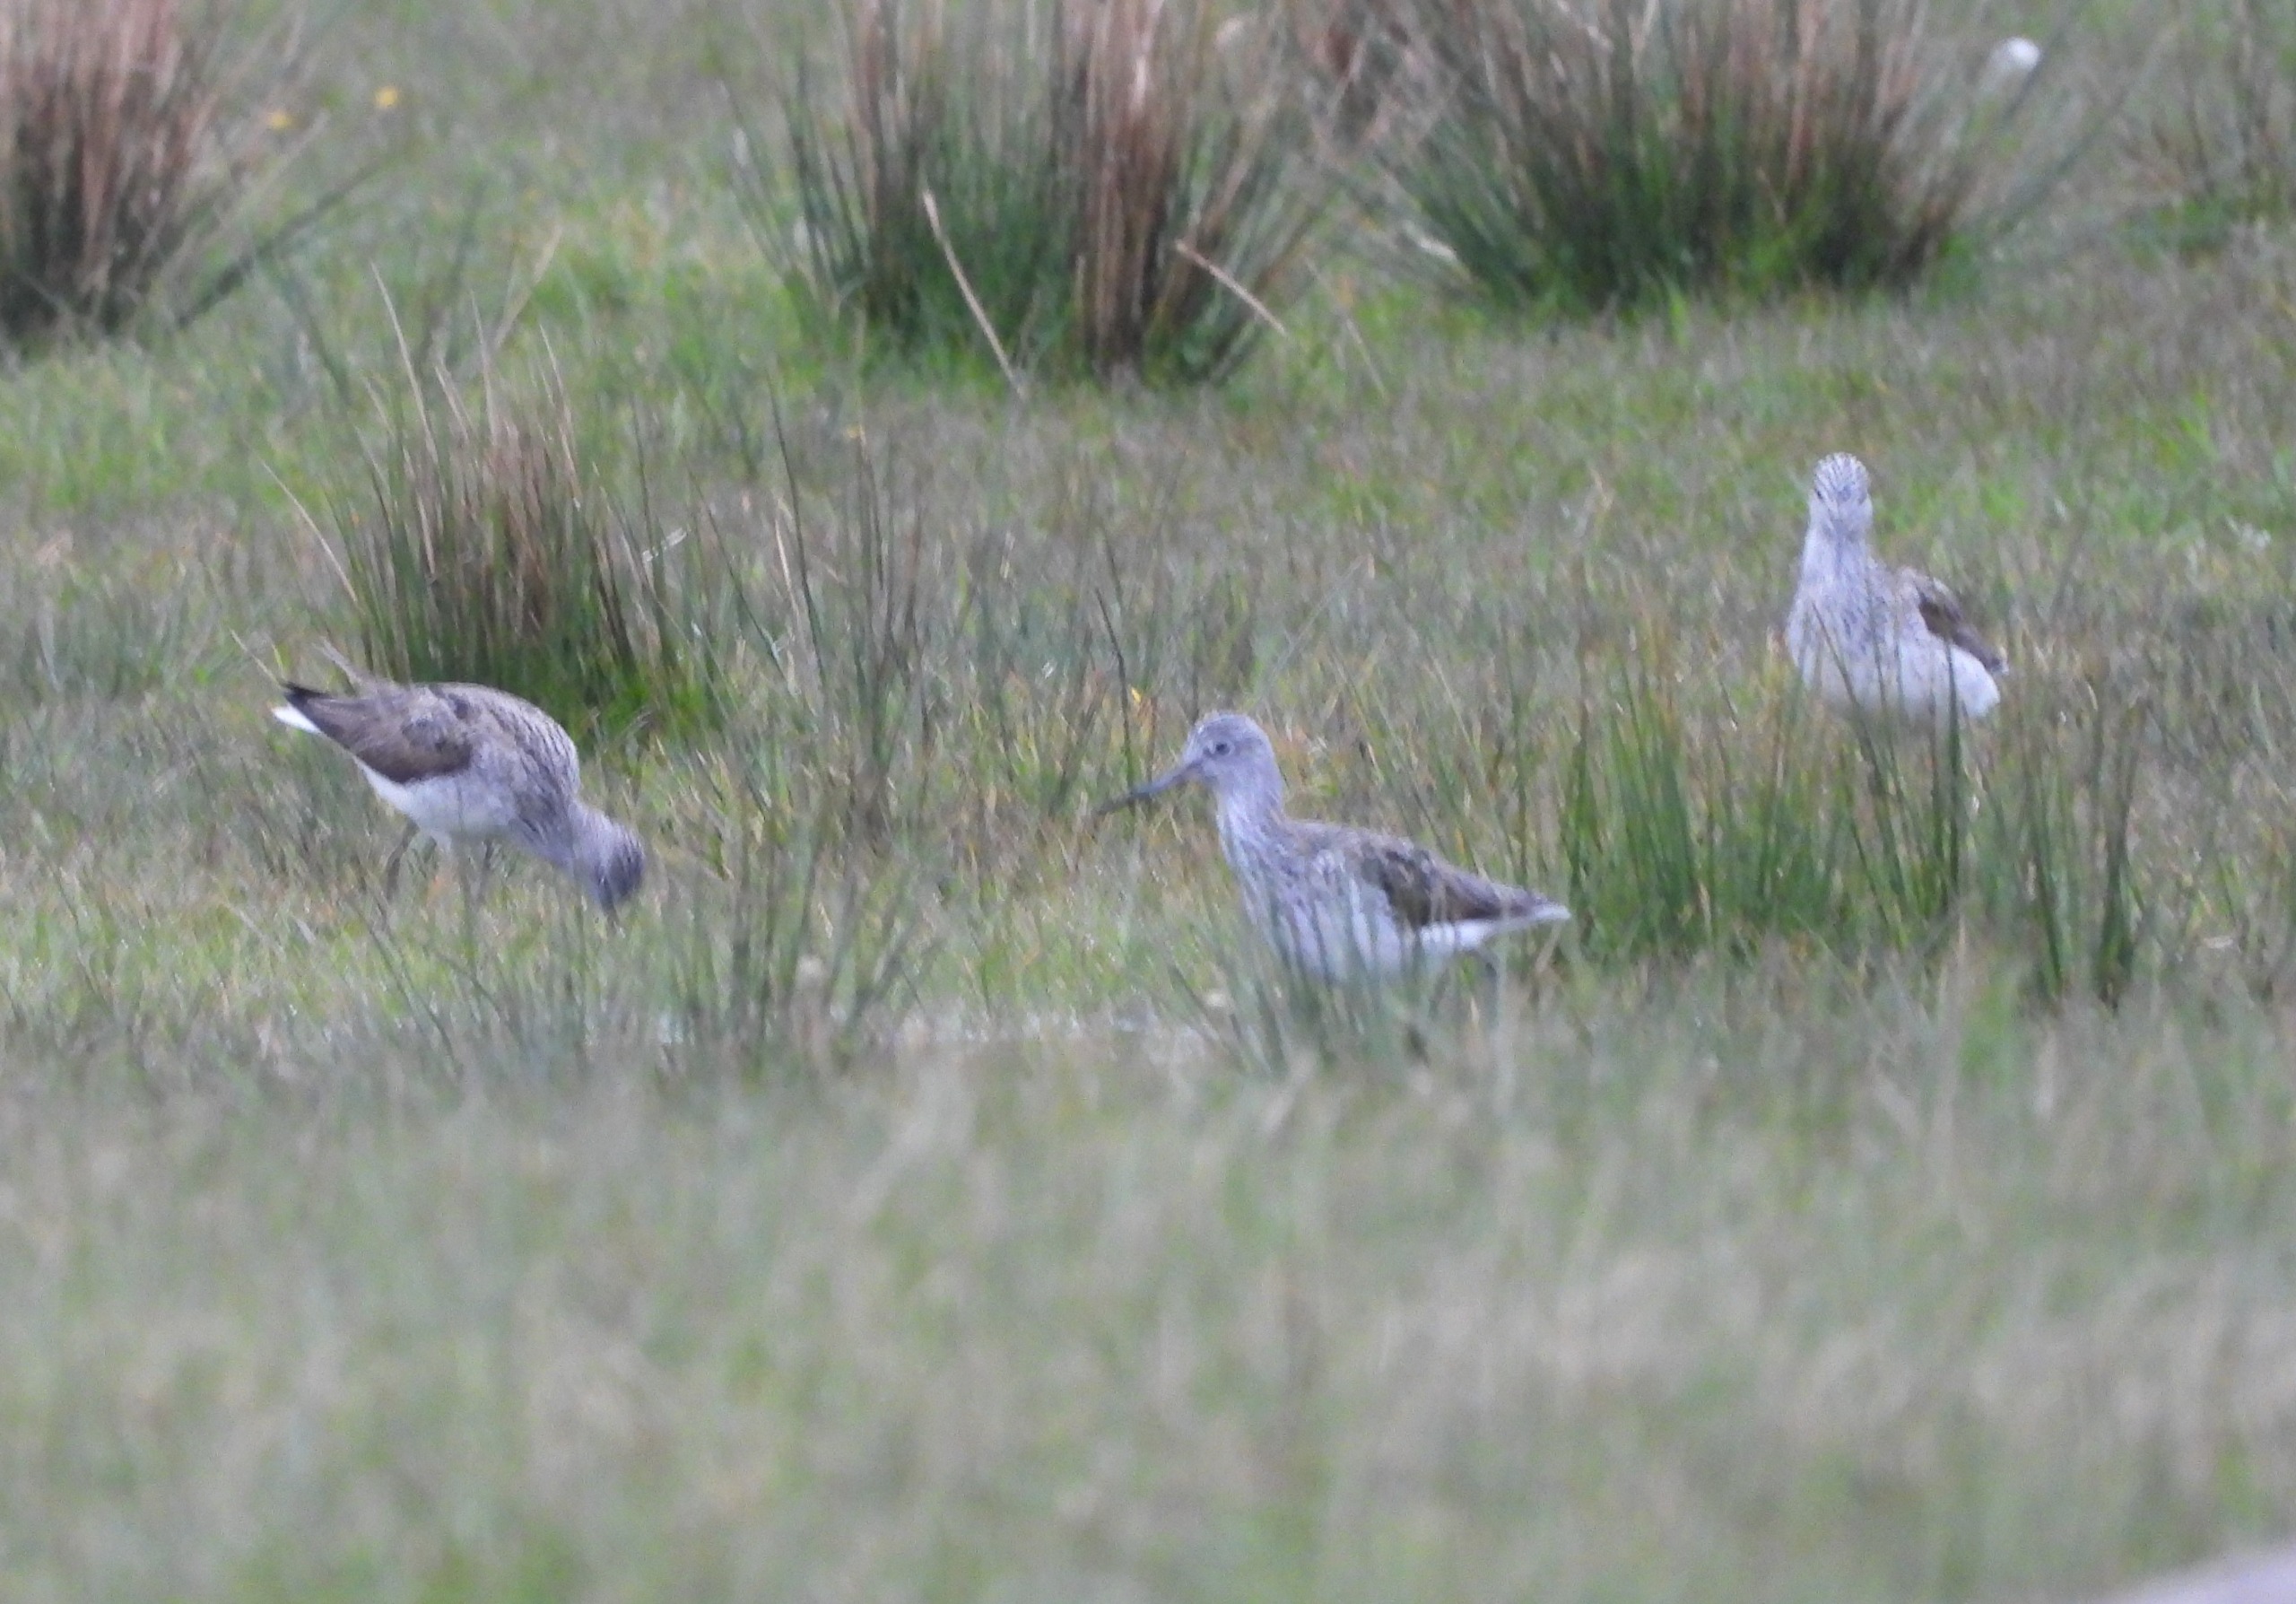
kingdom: Animalia
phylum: Chordata
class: Aves
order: Charadriiformes
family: Scolopacidae
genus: Tringa
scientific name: Tringa nebularia
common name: Hvidklire
